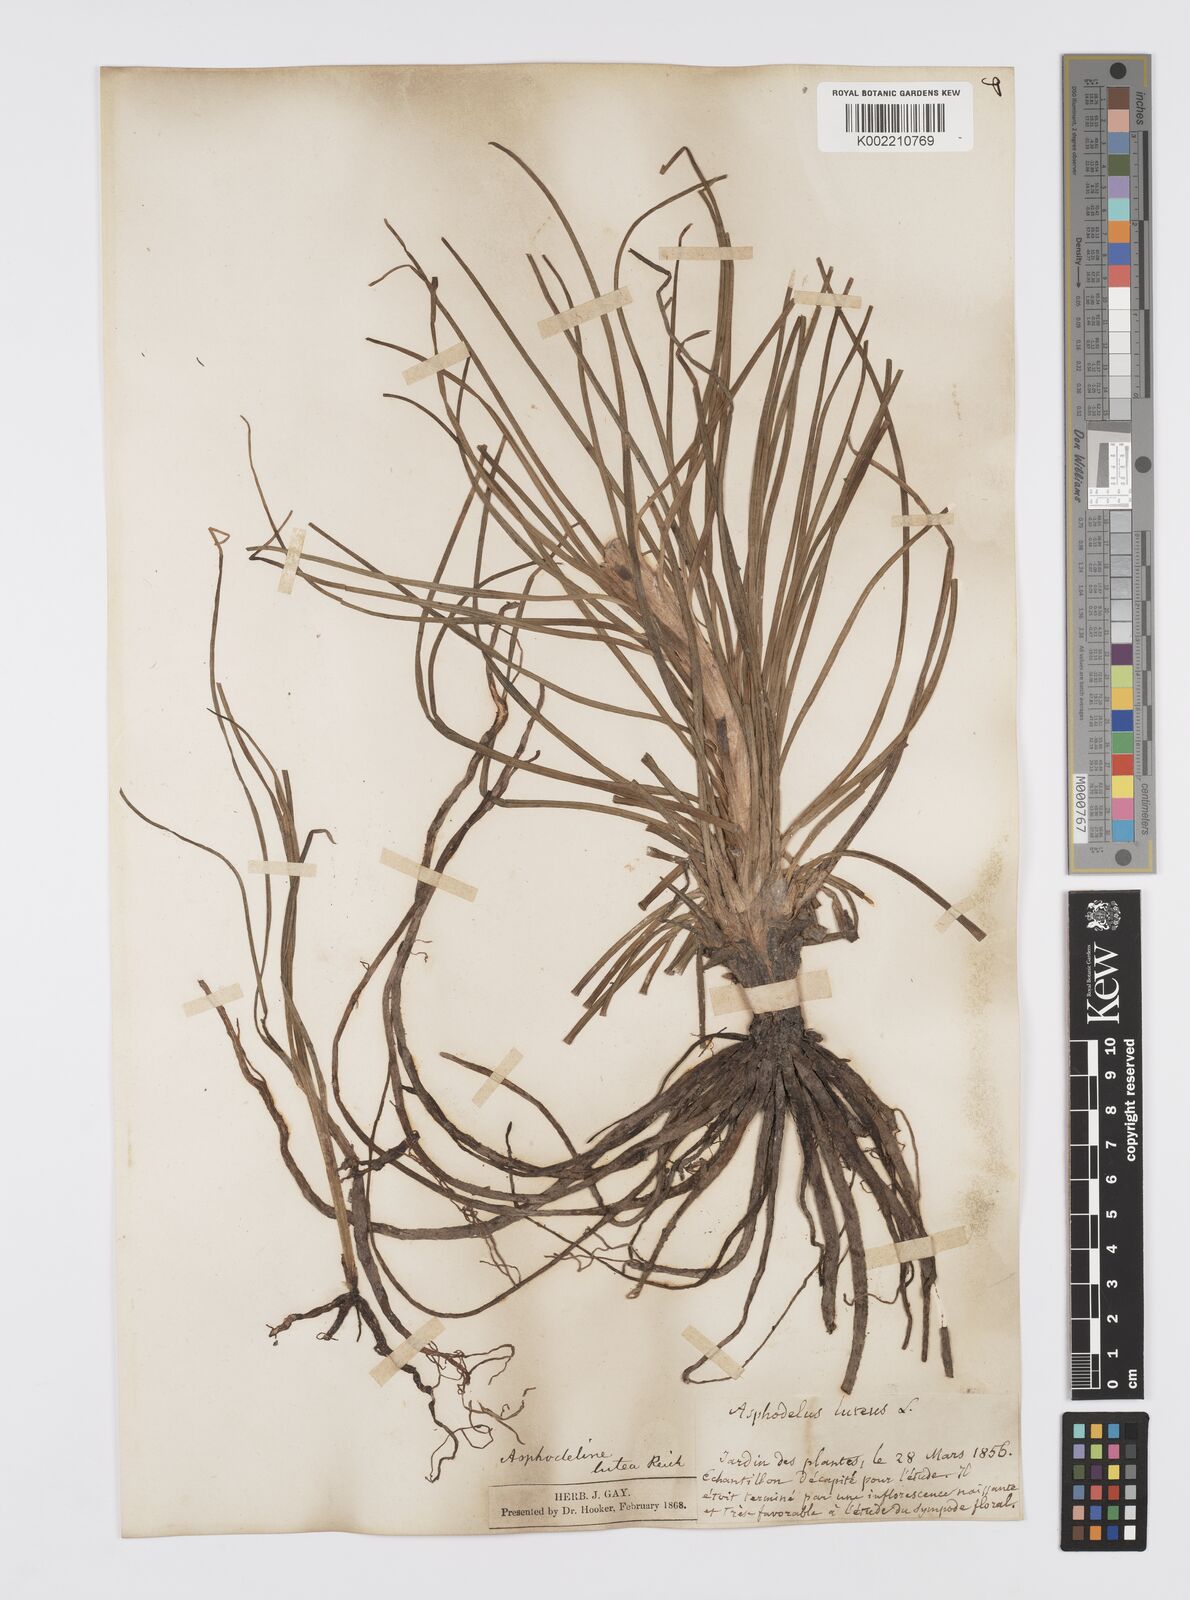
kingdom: Plantae
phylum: Tracheophyta
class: Liliopsida
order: Asparagales
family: Asphodelaceae
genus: Asphodeline
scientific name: Asphodeline lutea
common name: Yellow asphodel
